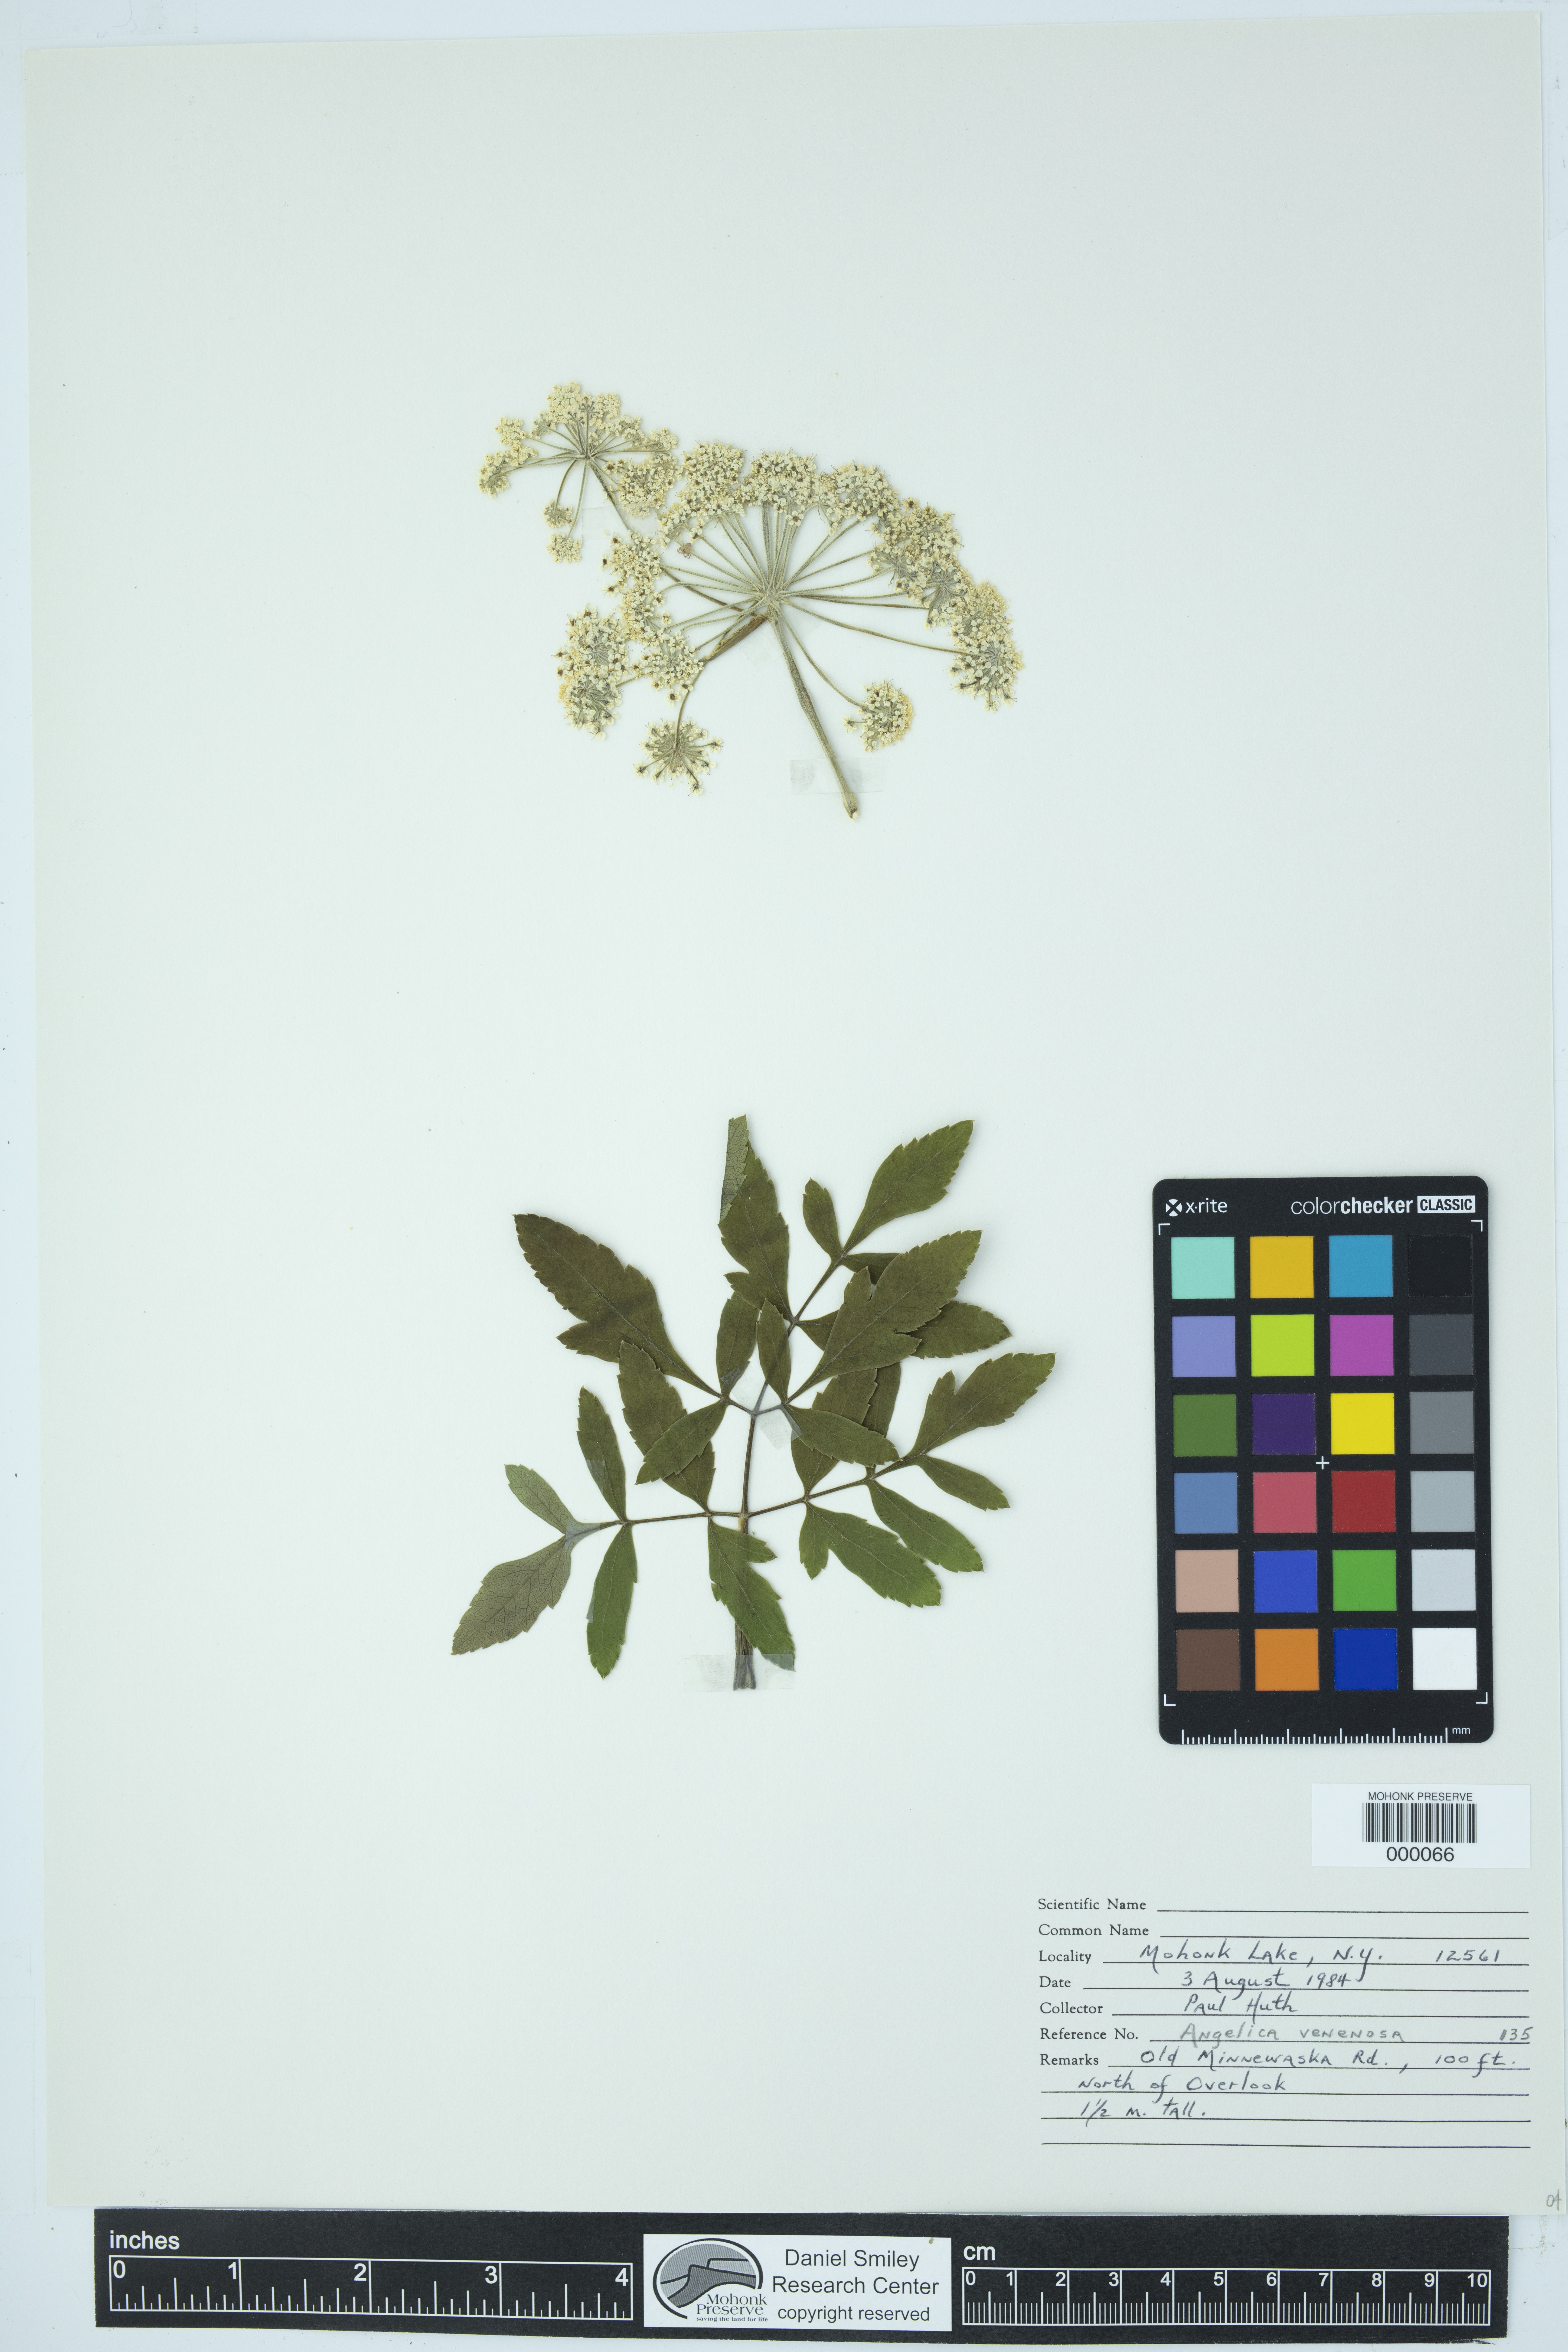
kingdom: Plantae
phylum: Tracheophyta
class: Magnoliopsida
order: Apiales
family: Apiaceae
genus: Angelica
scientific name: Angelica venenosa
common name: Hairy angelica
